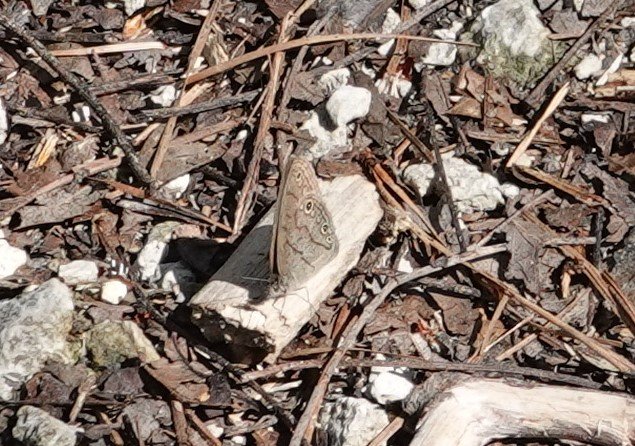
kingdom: Animalia
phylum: Arthropoda
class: Insecta
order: Lepidoptera
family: Nymphalidae
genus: Hermeuptychia
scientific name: Hermeuptychia hermes
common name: Carolina Satyr
